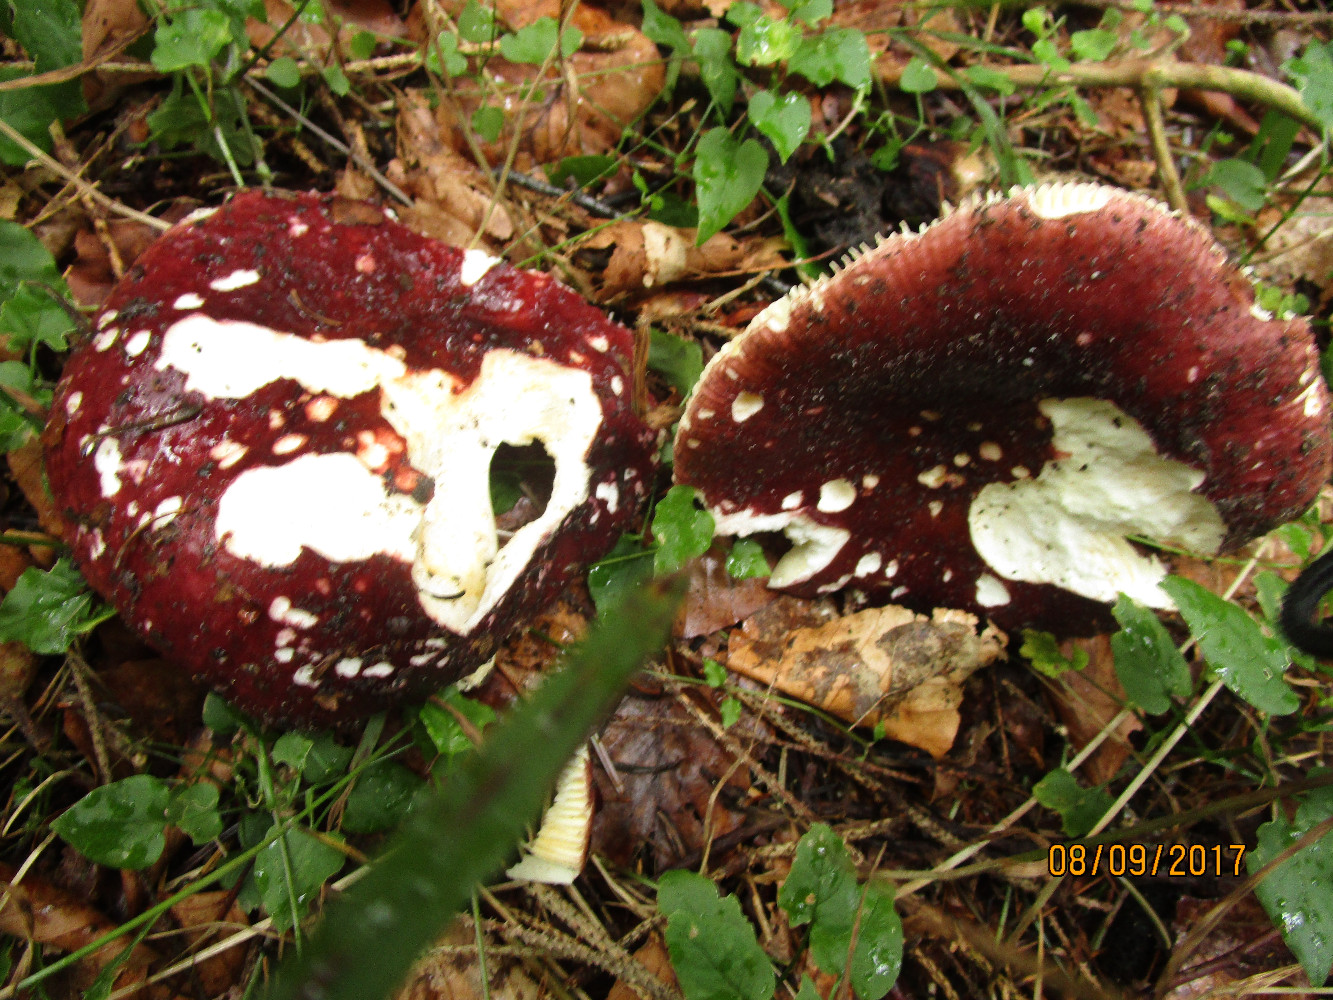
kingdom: Fungi
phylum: Basidiomycota
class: Agaricomycetes
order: Russulales
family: Russulaceae
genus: Russula
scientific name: Russula integra
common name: mandel-skørhat
